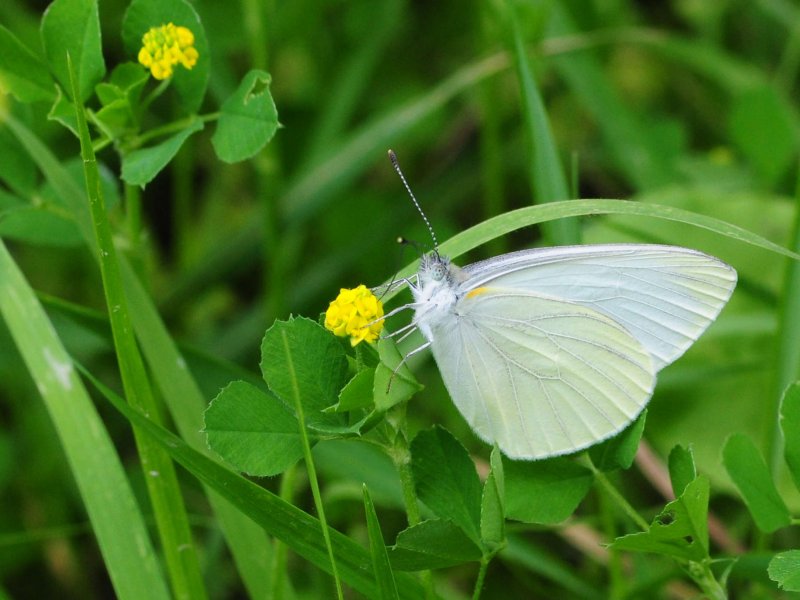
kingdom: Animalia
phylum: Arthropoda
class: Insecta
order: Lepidoptera
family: Pieridae
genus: Pieris
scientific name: Pieris oleracea
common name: Mustard White
